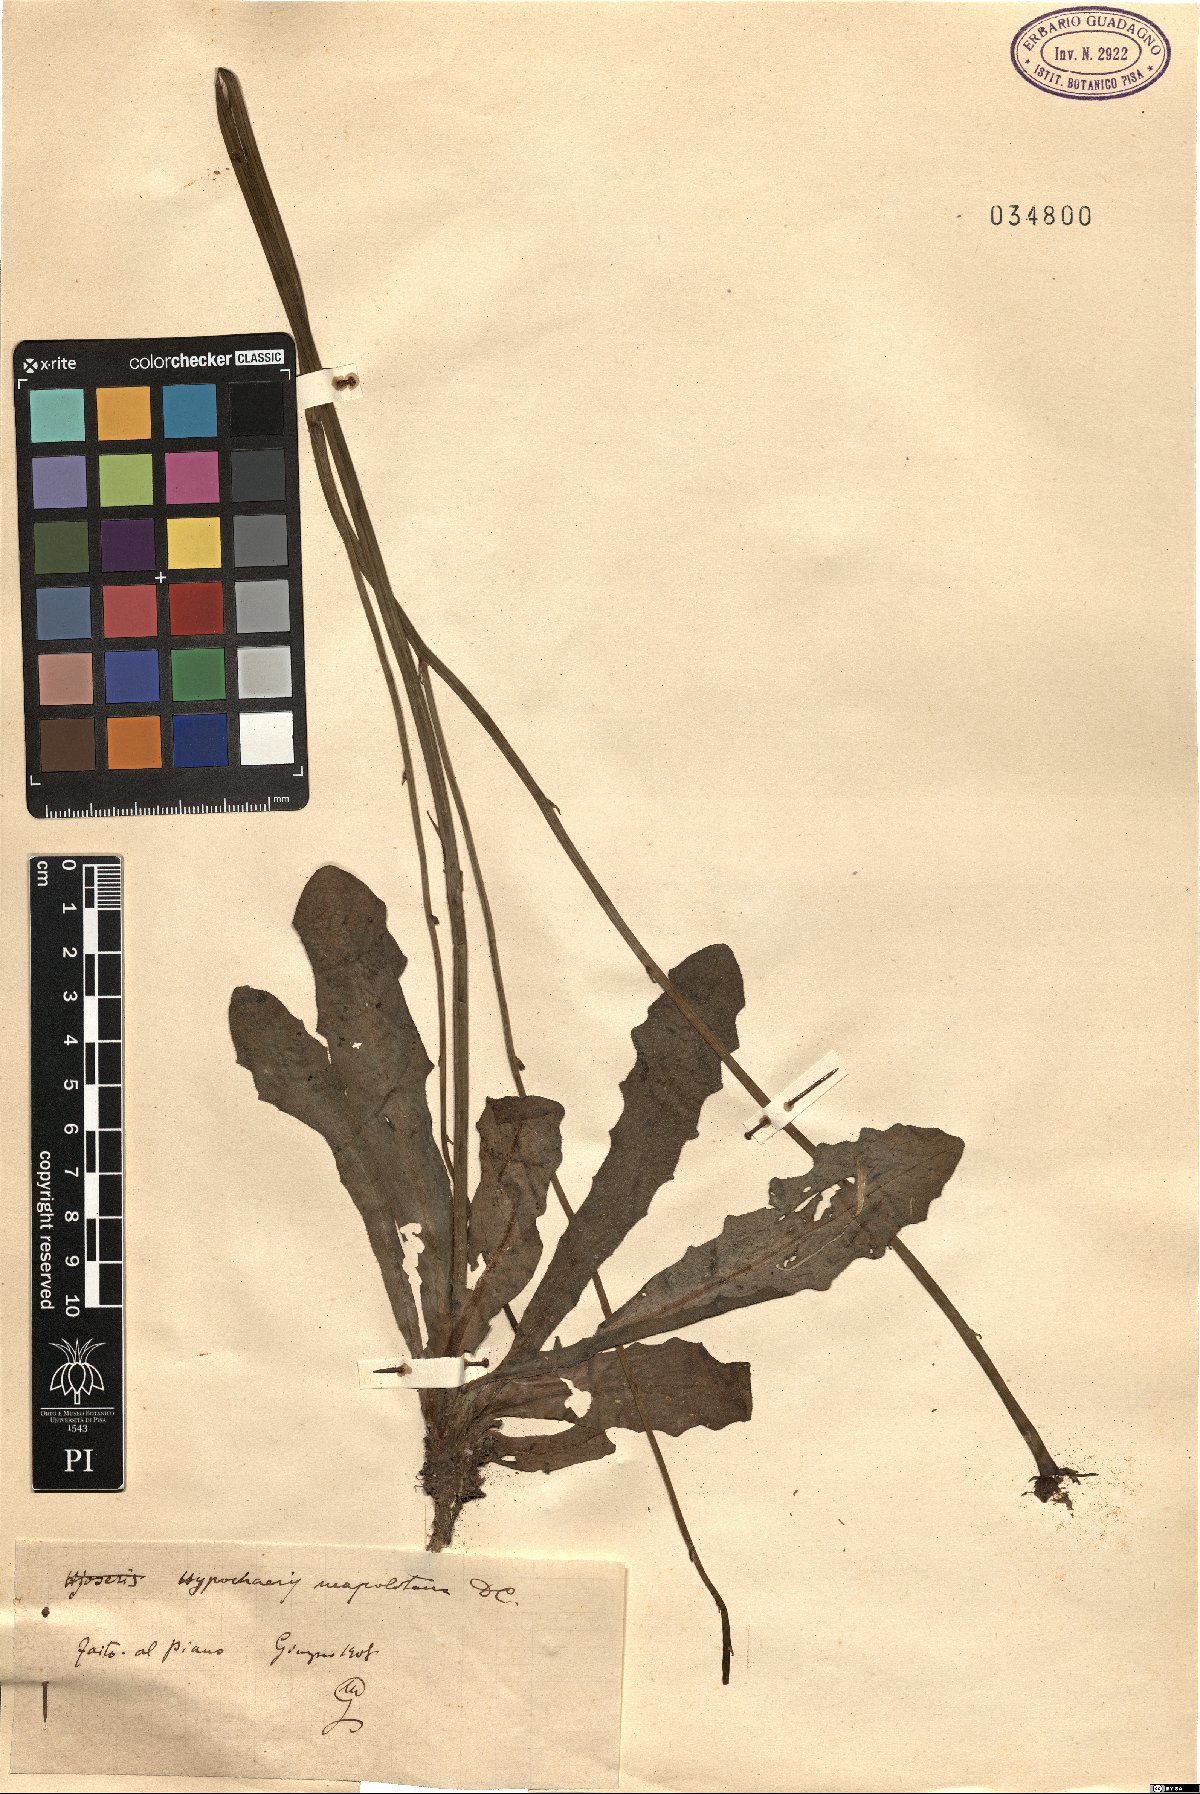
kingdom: Plantae
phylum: Tracheophyta
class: Magnoliopsida
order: Asterales
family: Asteraceae
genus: Hypochaeris
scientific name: Hypochaeris radicata
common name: Flatweed
